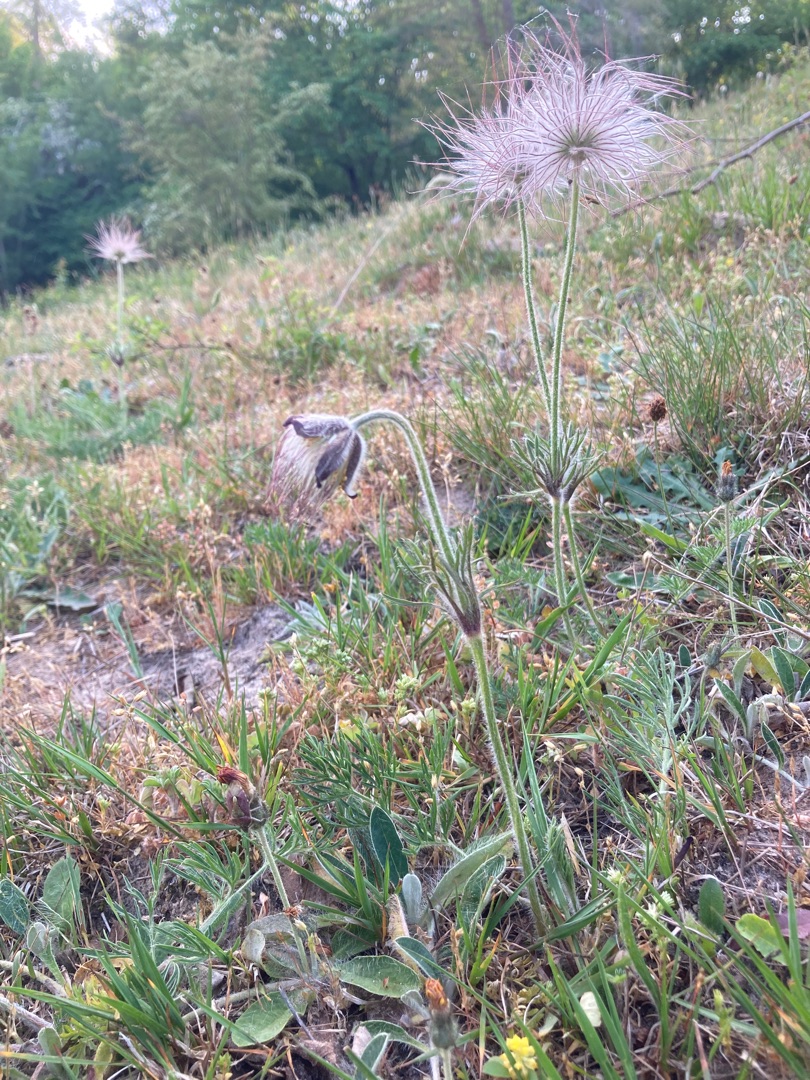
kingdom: Plantae
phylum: Tracheophyta
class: Magnoliopsida
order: Ranunculales
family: Ranunculaceae
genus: Pulsatilla
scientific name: Pulsatilla pratensis
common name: Nikkende kobjælde
